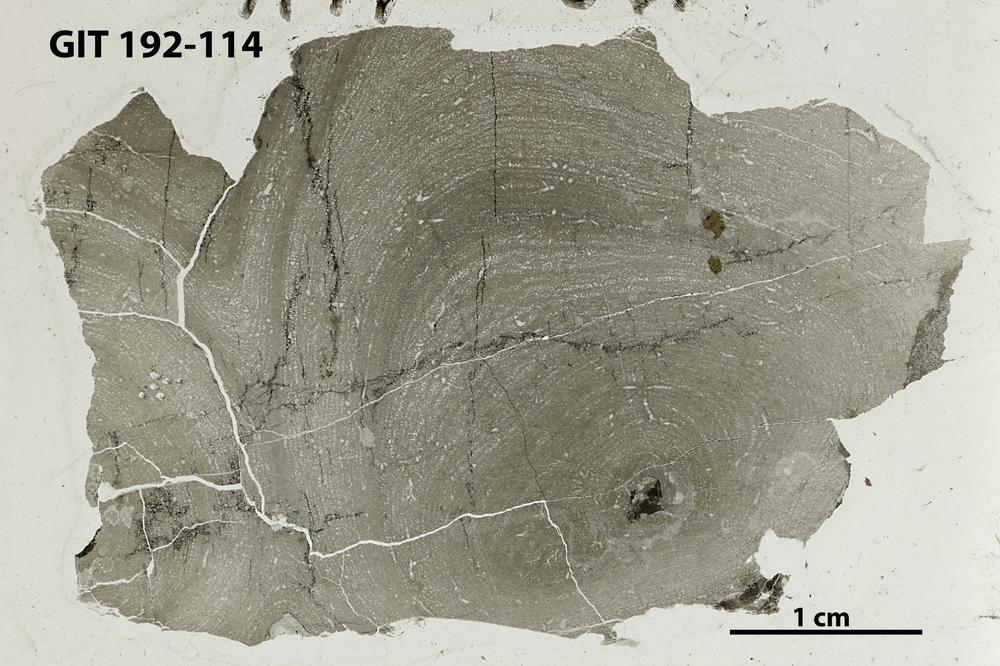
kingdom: Animalia
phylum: Porifera
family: Densastromatidae
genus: Araneosustroma
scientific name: Araneosustroma
